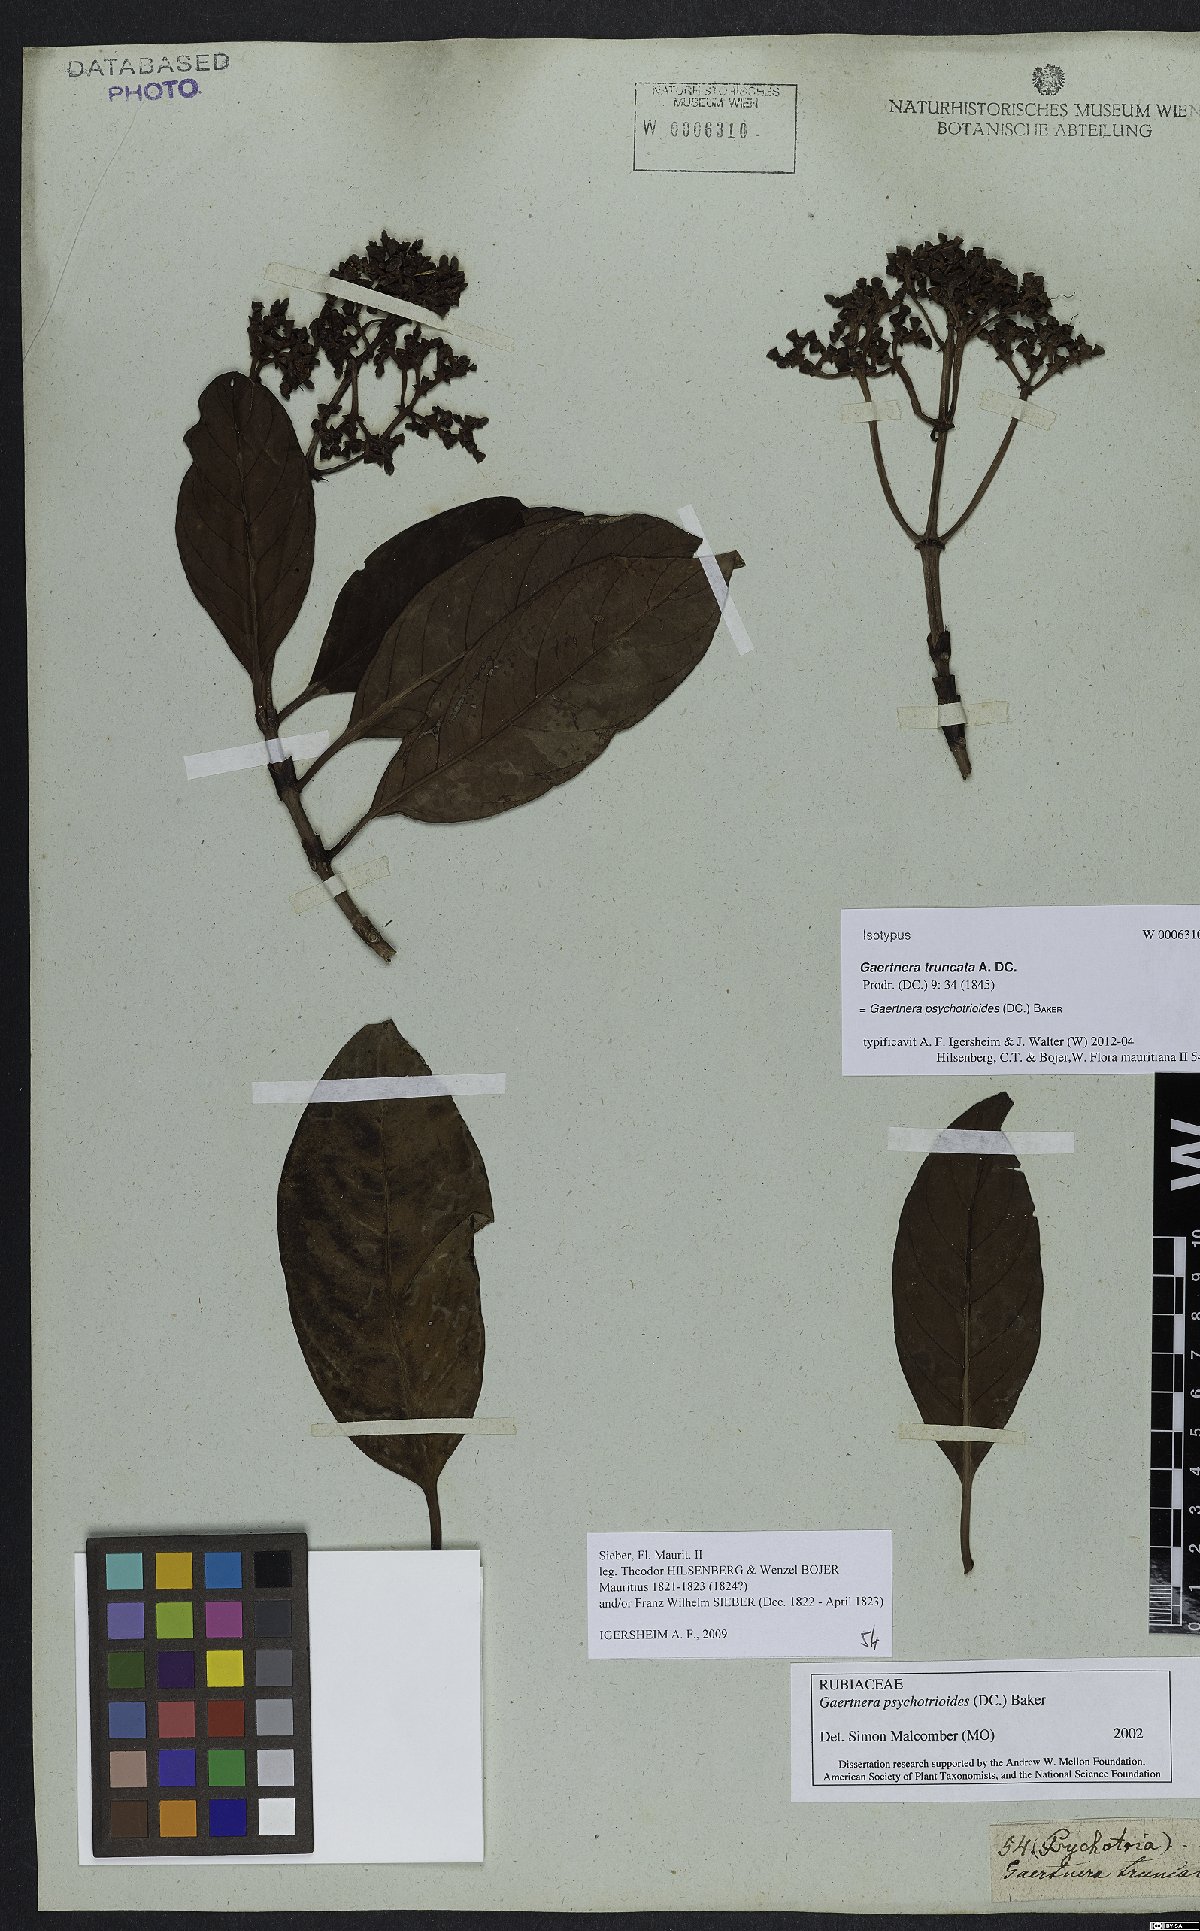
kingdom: Plantae
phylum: Tracheophyta
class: Magnoliopsida
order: Gentianales
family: Rubiaceae
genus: Gaertnera
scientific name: Gaertnera psychotrioides
